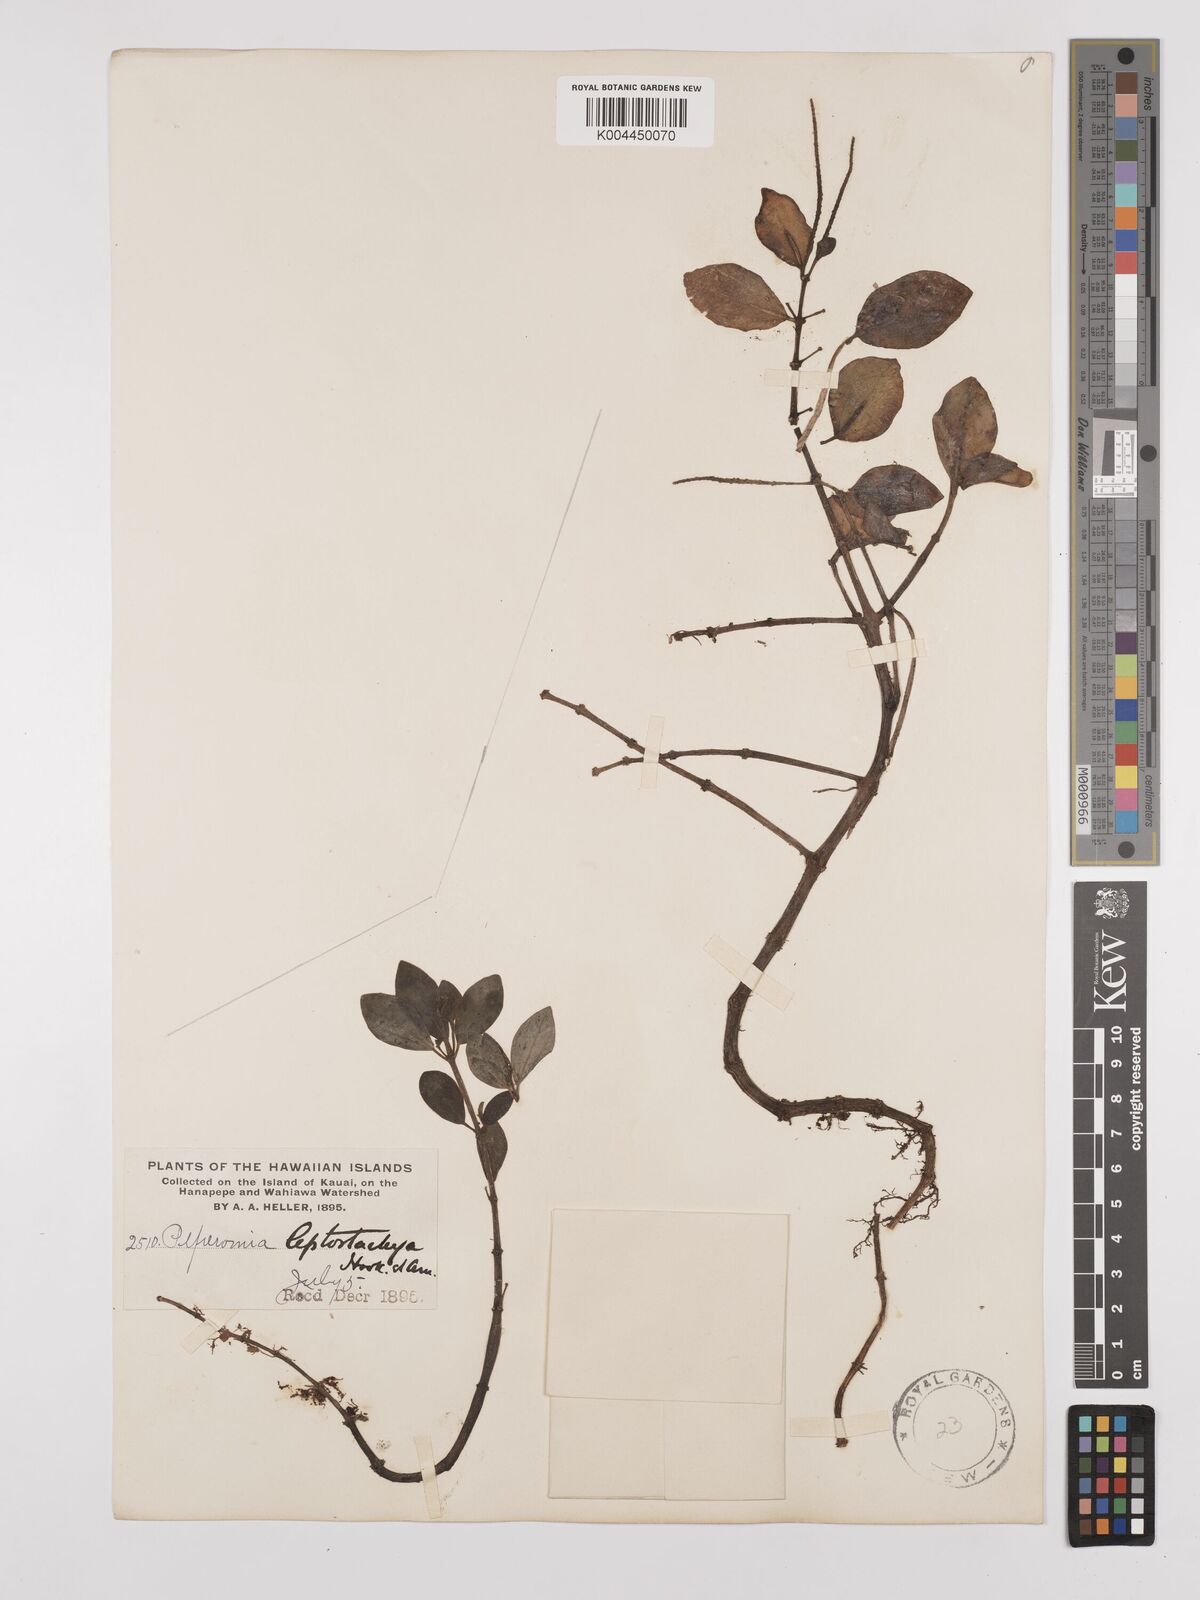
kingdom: Plantae
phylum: Tracheophyta
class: Magnoliopsida
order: Piperales
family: Piperaceae
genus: Peperomia
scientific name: Peperomia leptostachya
